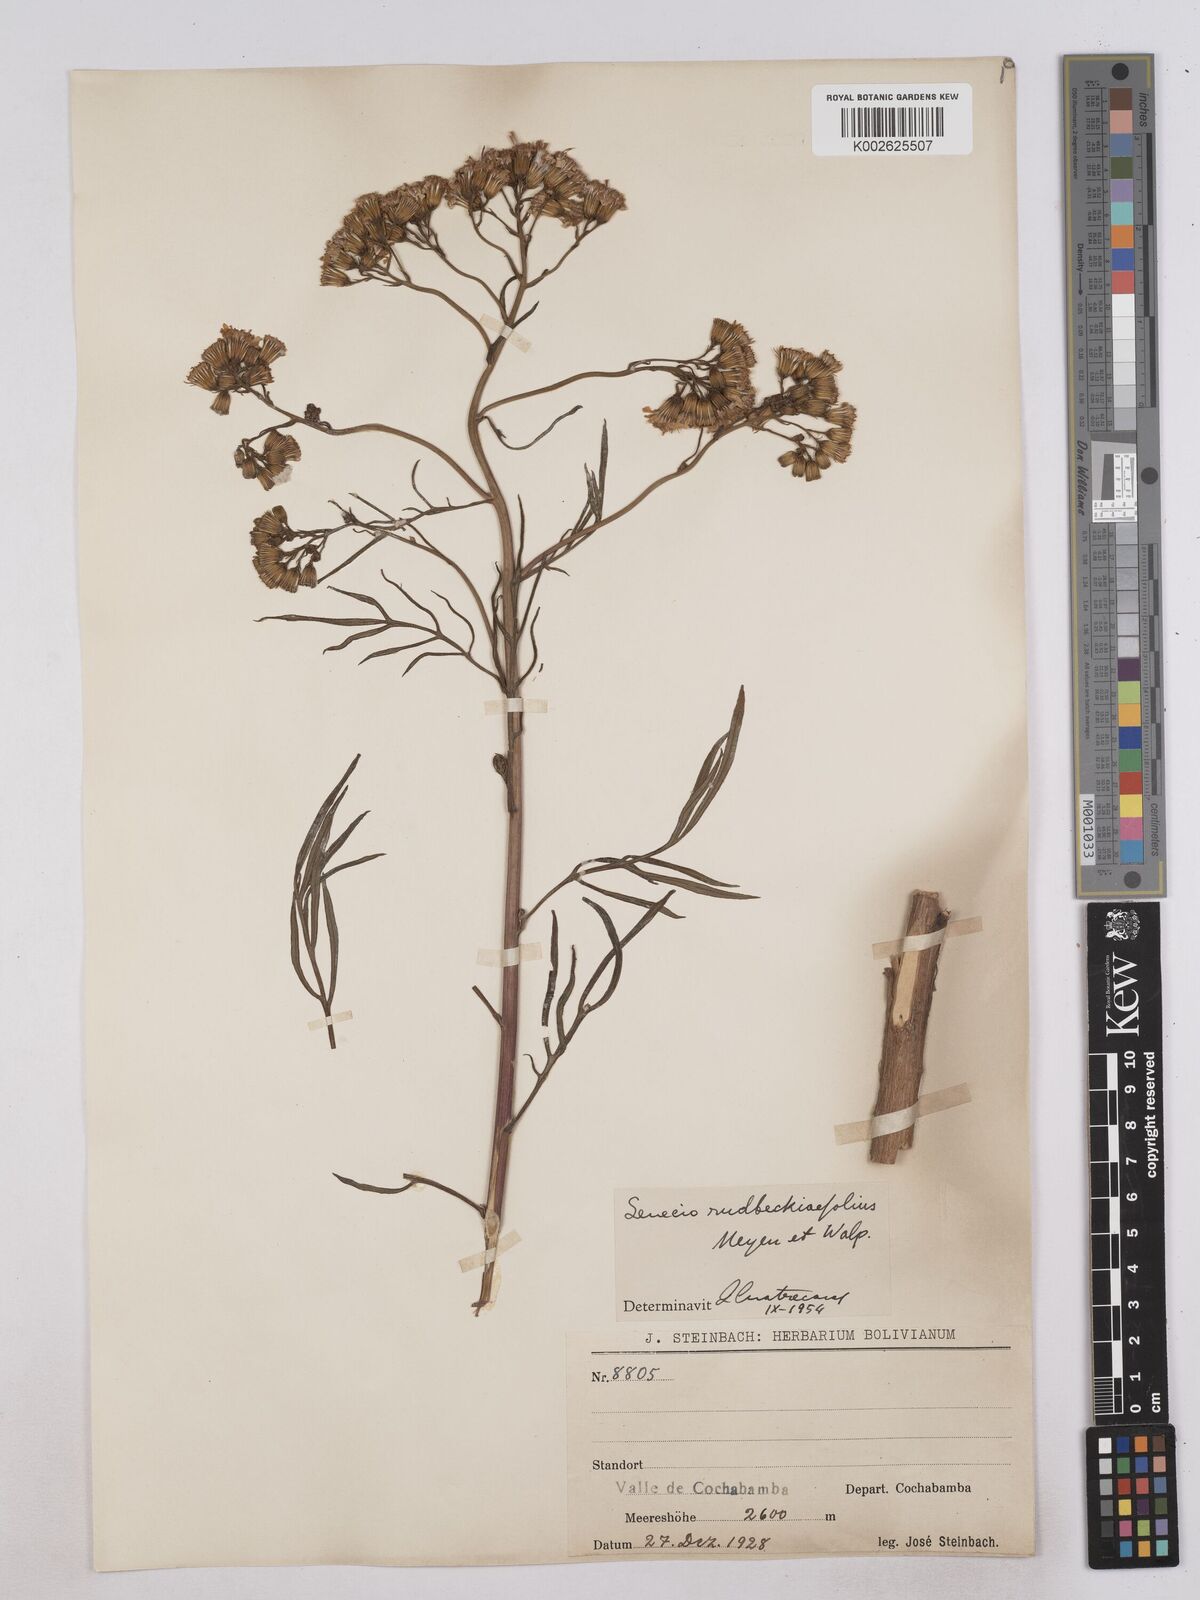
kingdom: Plantae
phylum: Tracheophyta
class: Magnoliopsida
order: Asterales
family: Asteraceae
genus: Senecio
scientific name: Senecio rudbeckiifolius
